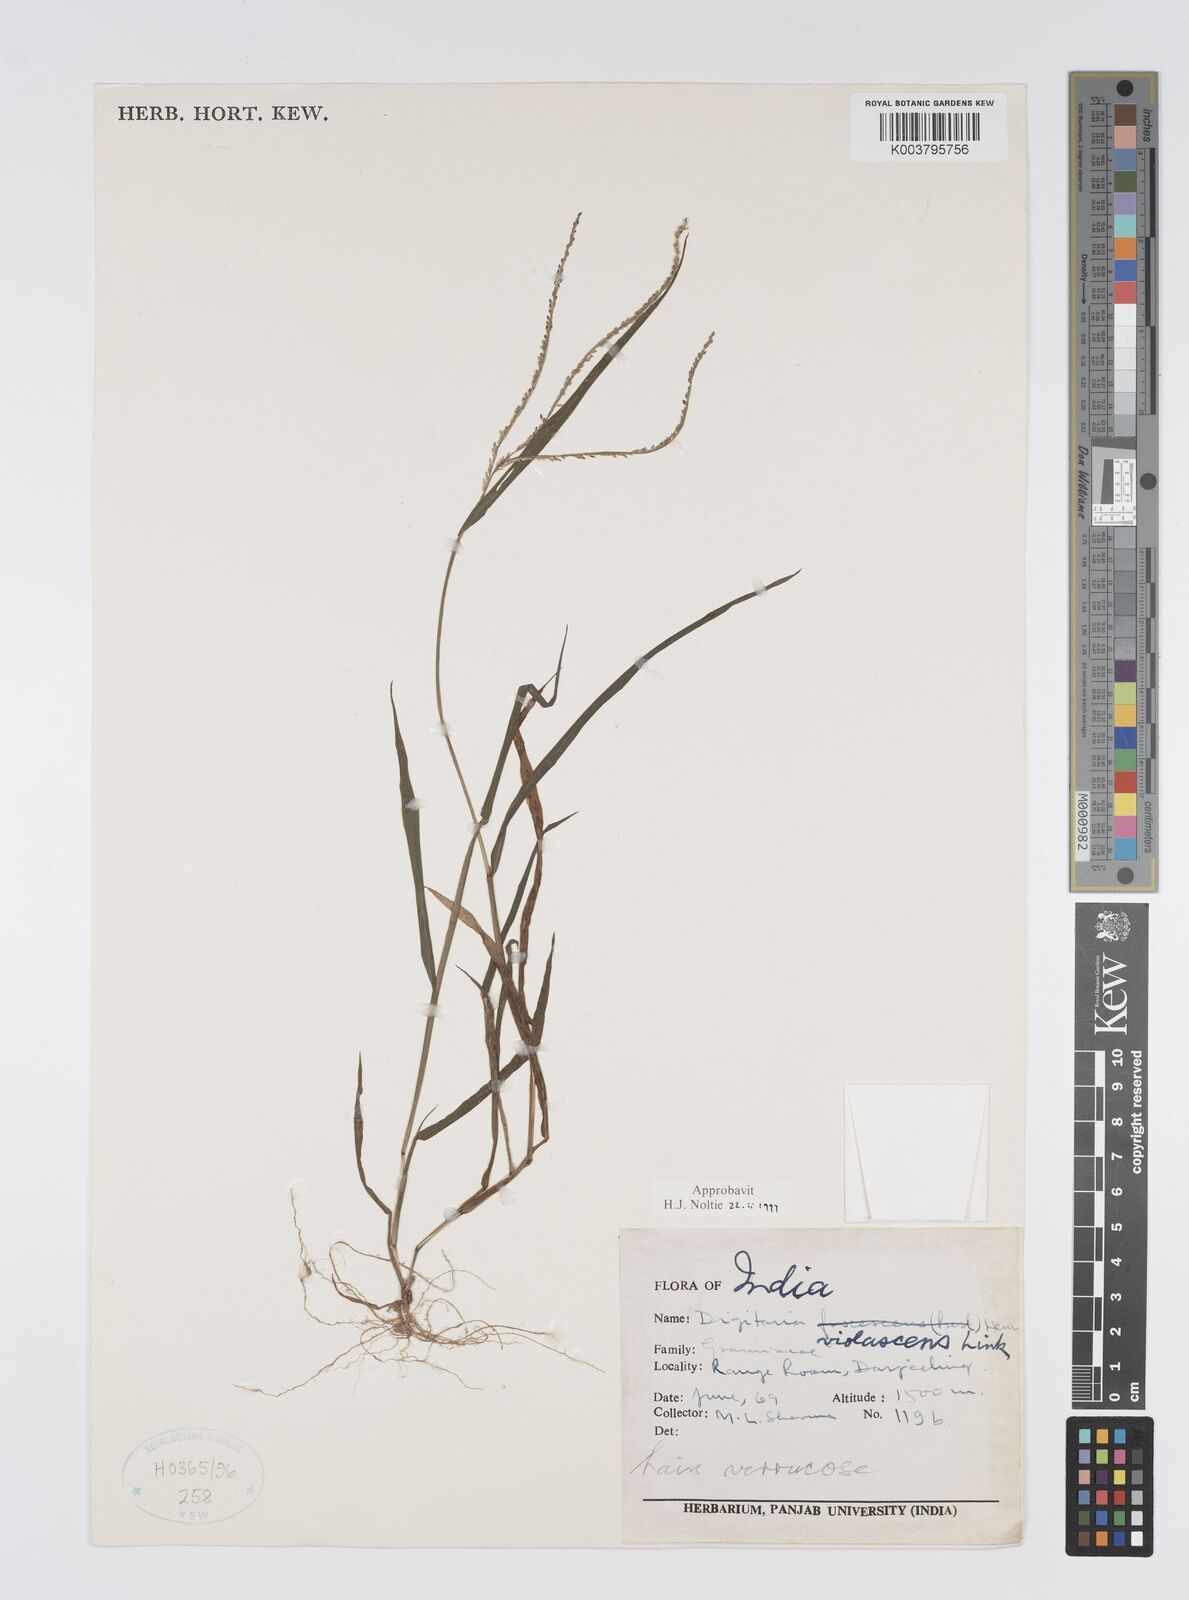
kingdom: Plantae
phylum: Tracheophyta
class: Liliopsida
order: Poales
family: Poaceae
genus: Digitaria
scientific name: Digitaria violascens
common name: Violet crabgrass
